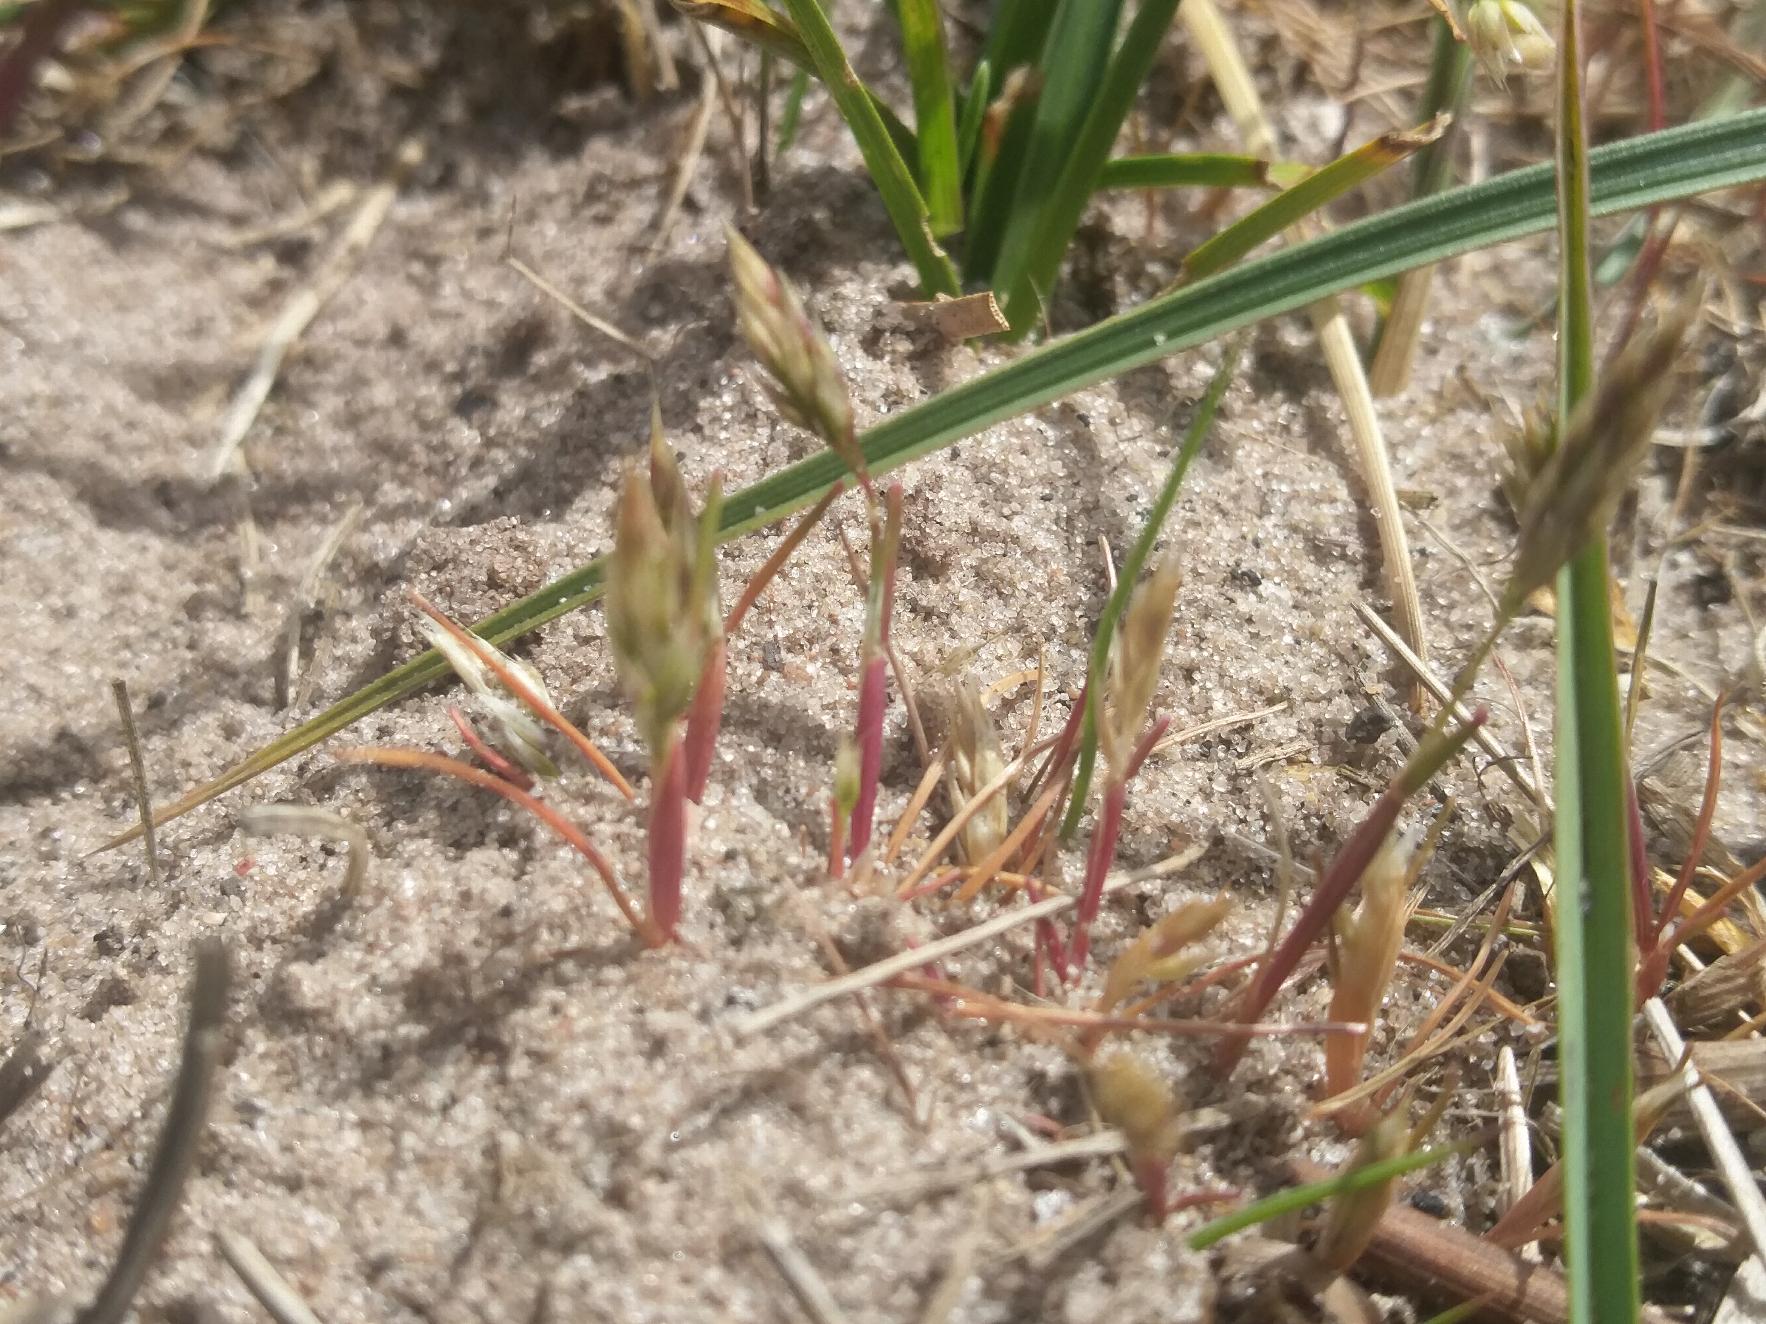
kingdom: Plantae
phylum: Tracheophyta
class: Liliopsida
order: Poales
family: Poaceae
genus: Aira
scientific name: Aira praecox
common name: Tidlig dværgbunke
